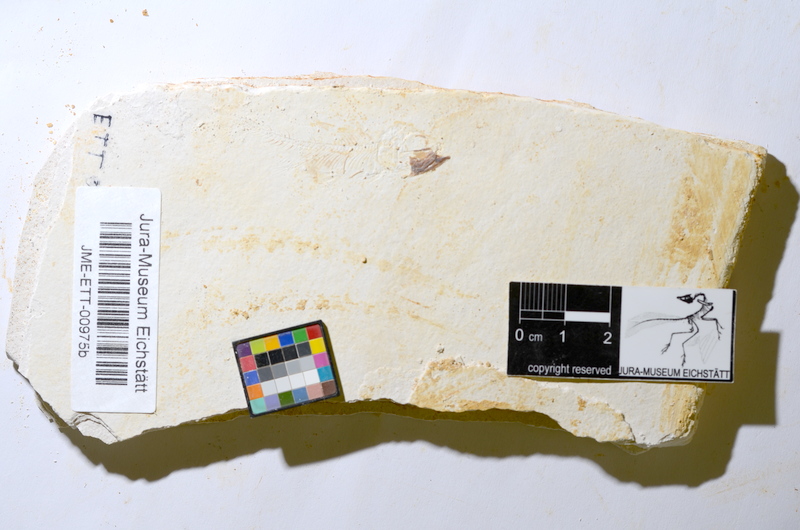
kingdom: Animalia
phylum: Chordata
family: Ascalaboidae
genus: Ebertichthys
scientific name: Ebertichthys ettlingensis
